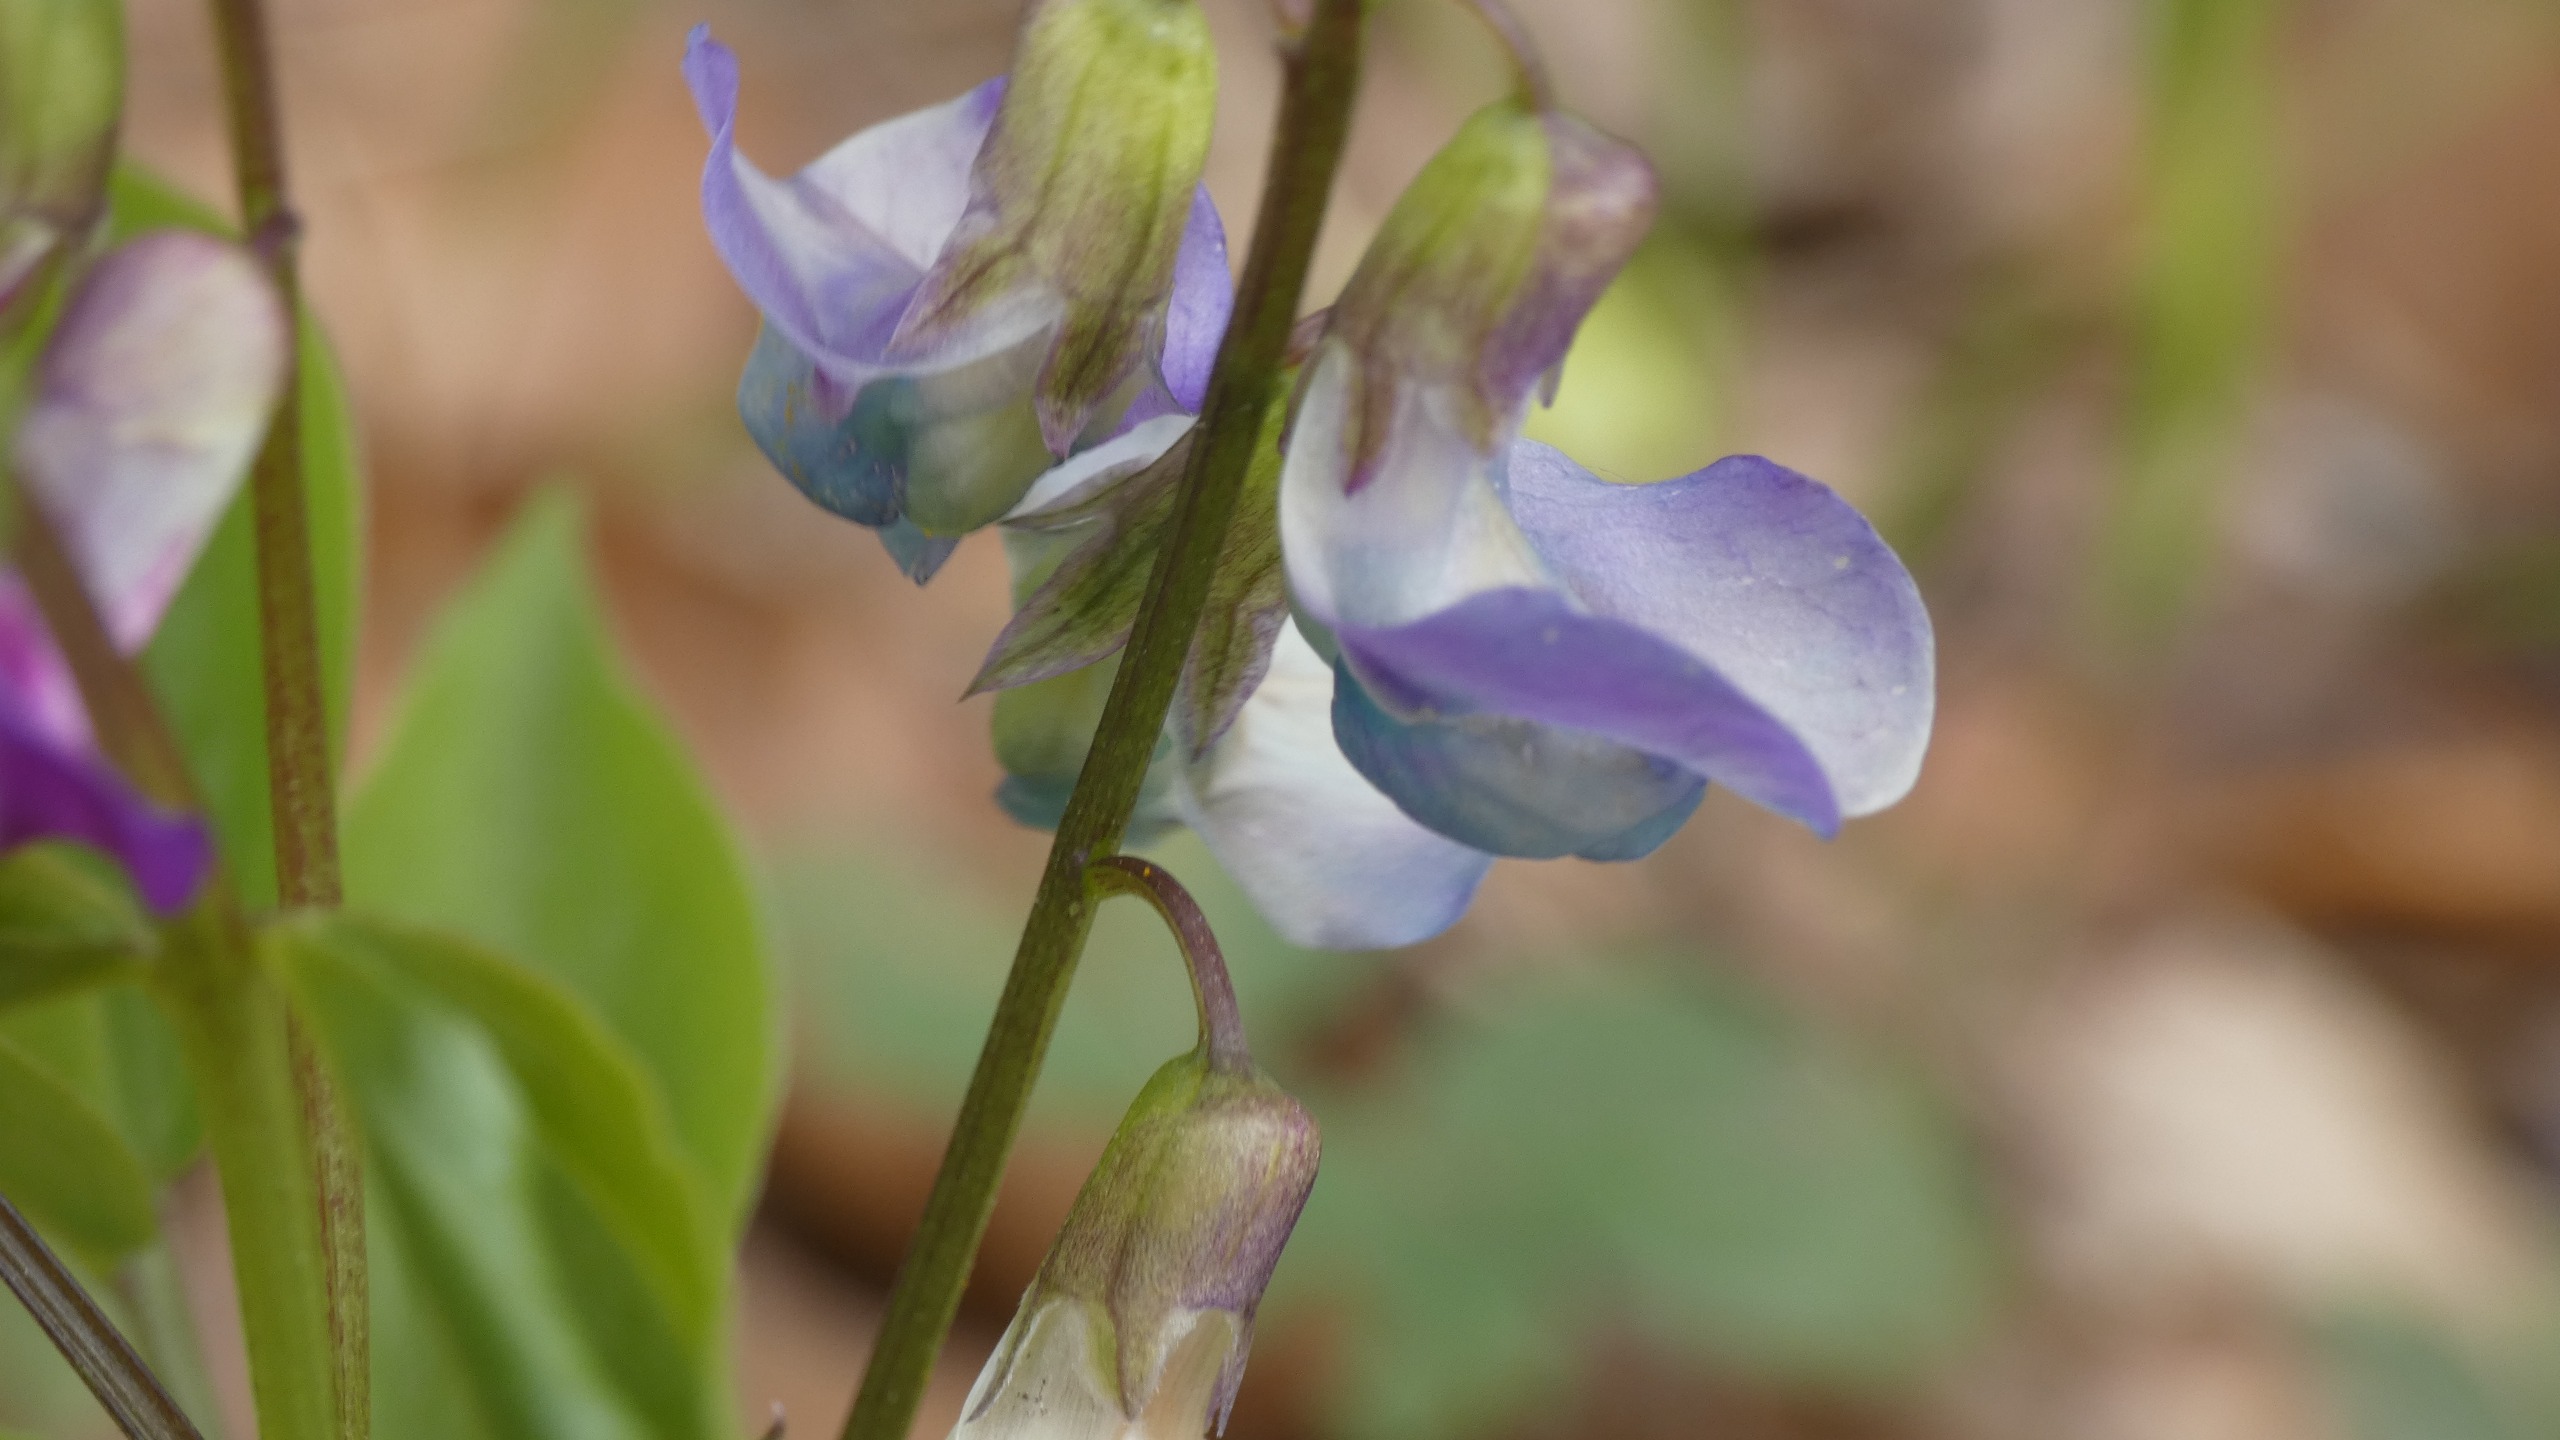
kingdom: Plantae
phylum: Tracheophyta
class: Magnoliopsida
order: Fabales
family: Fabaceae
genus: Lathyrus
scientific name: Lathyrus vernus
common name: Vår-fladbælg
